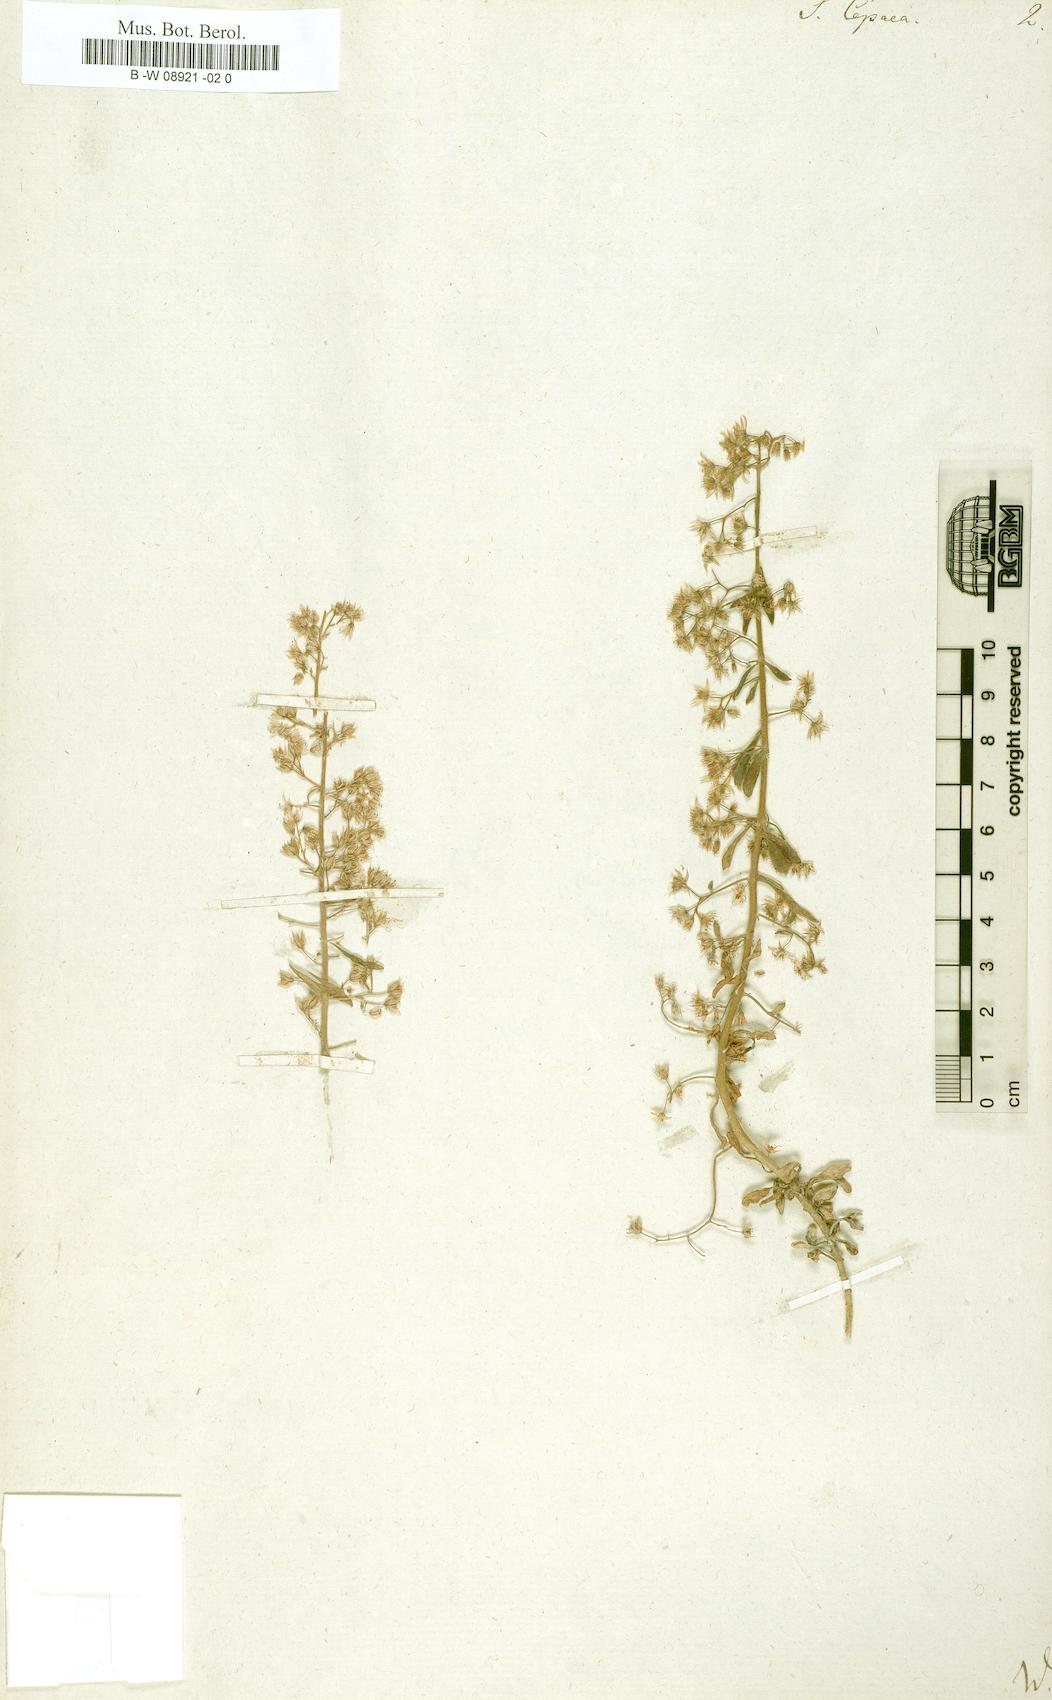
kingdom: Plantae
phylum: Tracheophyta
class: Magnoliopsida
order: Saxifragales
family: Crassulaceae
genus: Sedum
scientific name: Sedum cepaea
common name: Pink stonecrop
